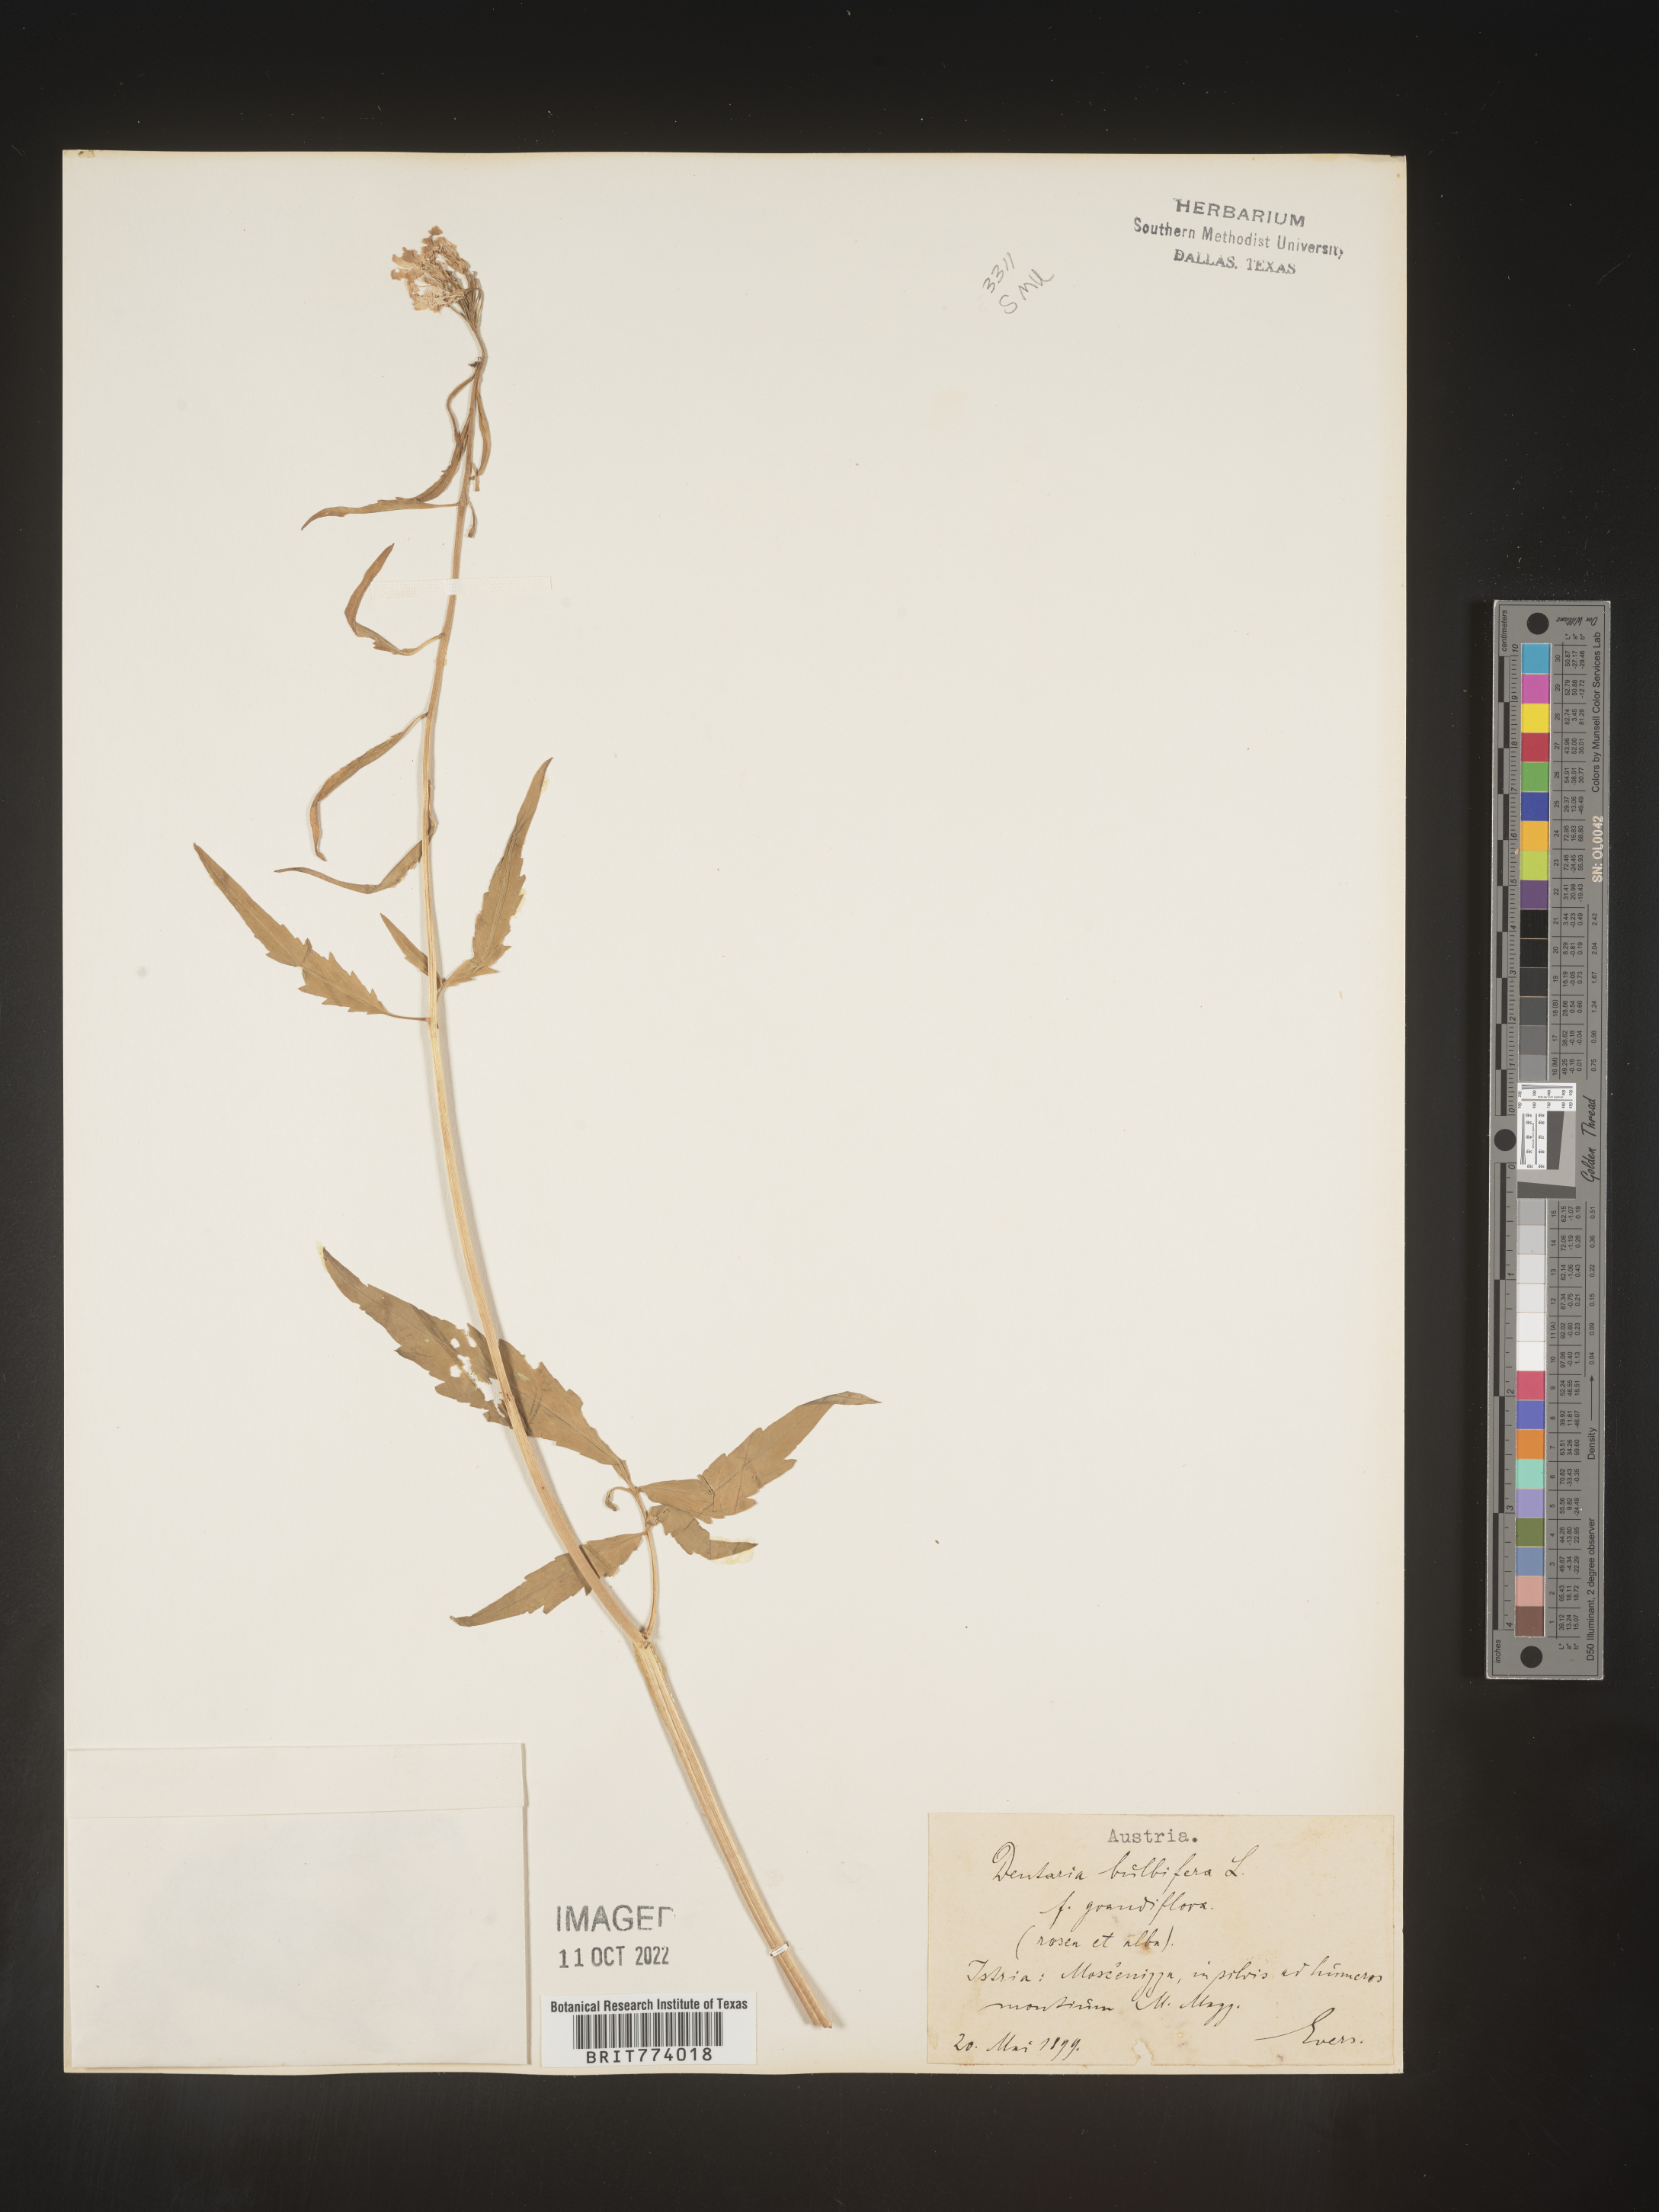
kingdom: Plantae
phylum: Tracheophyta
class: Magnoliopsida
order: Brassicales
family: Brassicaceae
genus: Cardamine
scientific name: Cardamine
